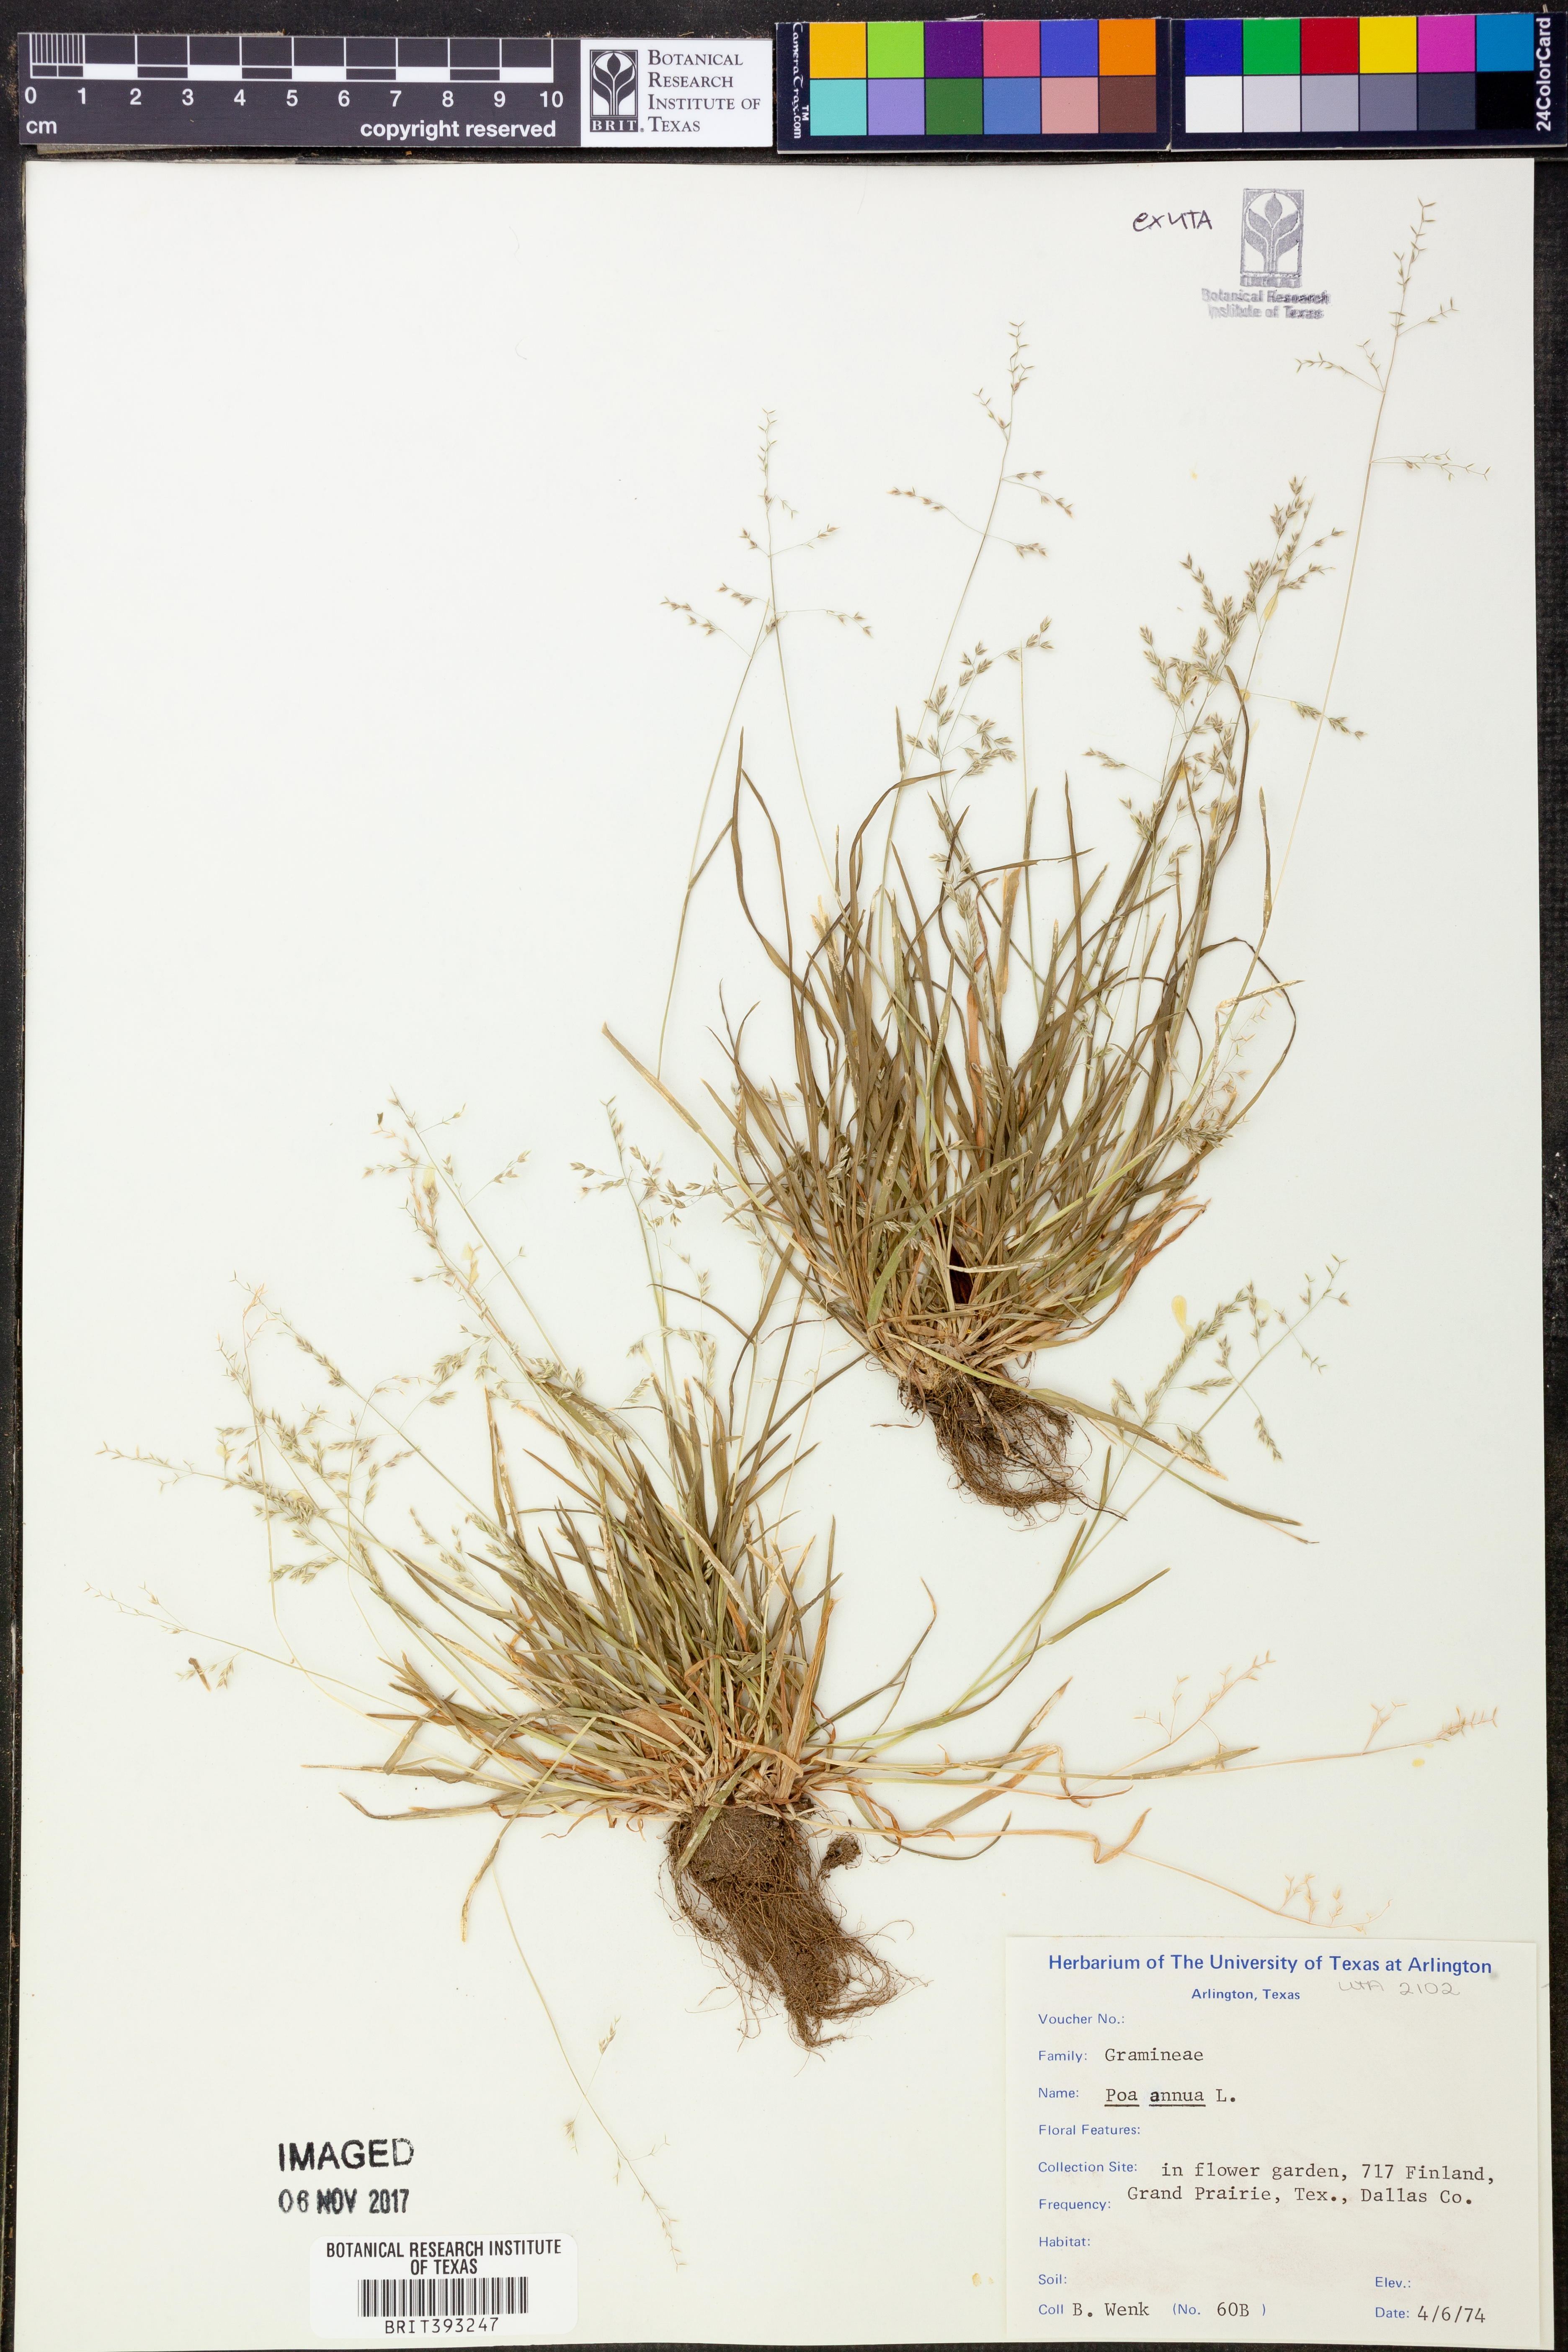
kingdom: Plantae
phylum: Tracheophyta
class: Liliopsida
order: Poales
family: Poaceae
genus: Poa
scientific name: Poa annua
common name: Annual bluegrass
